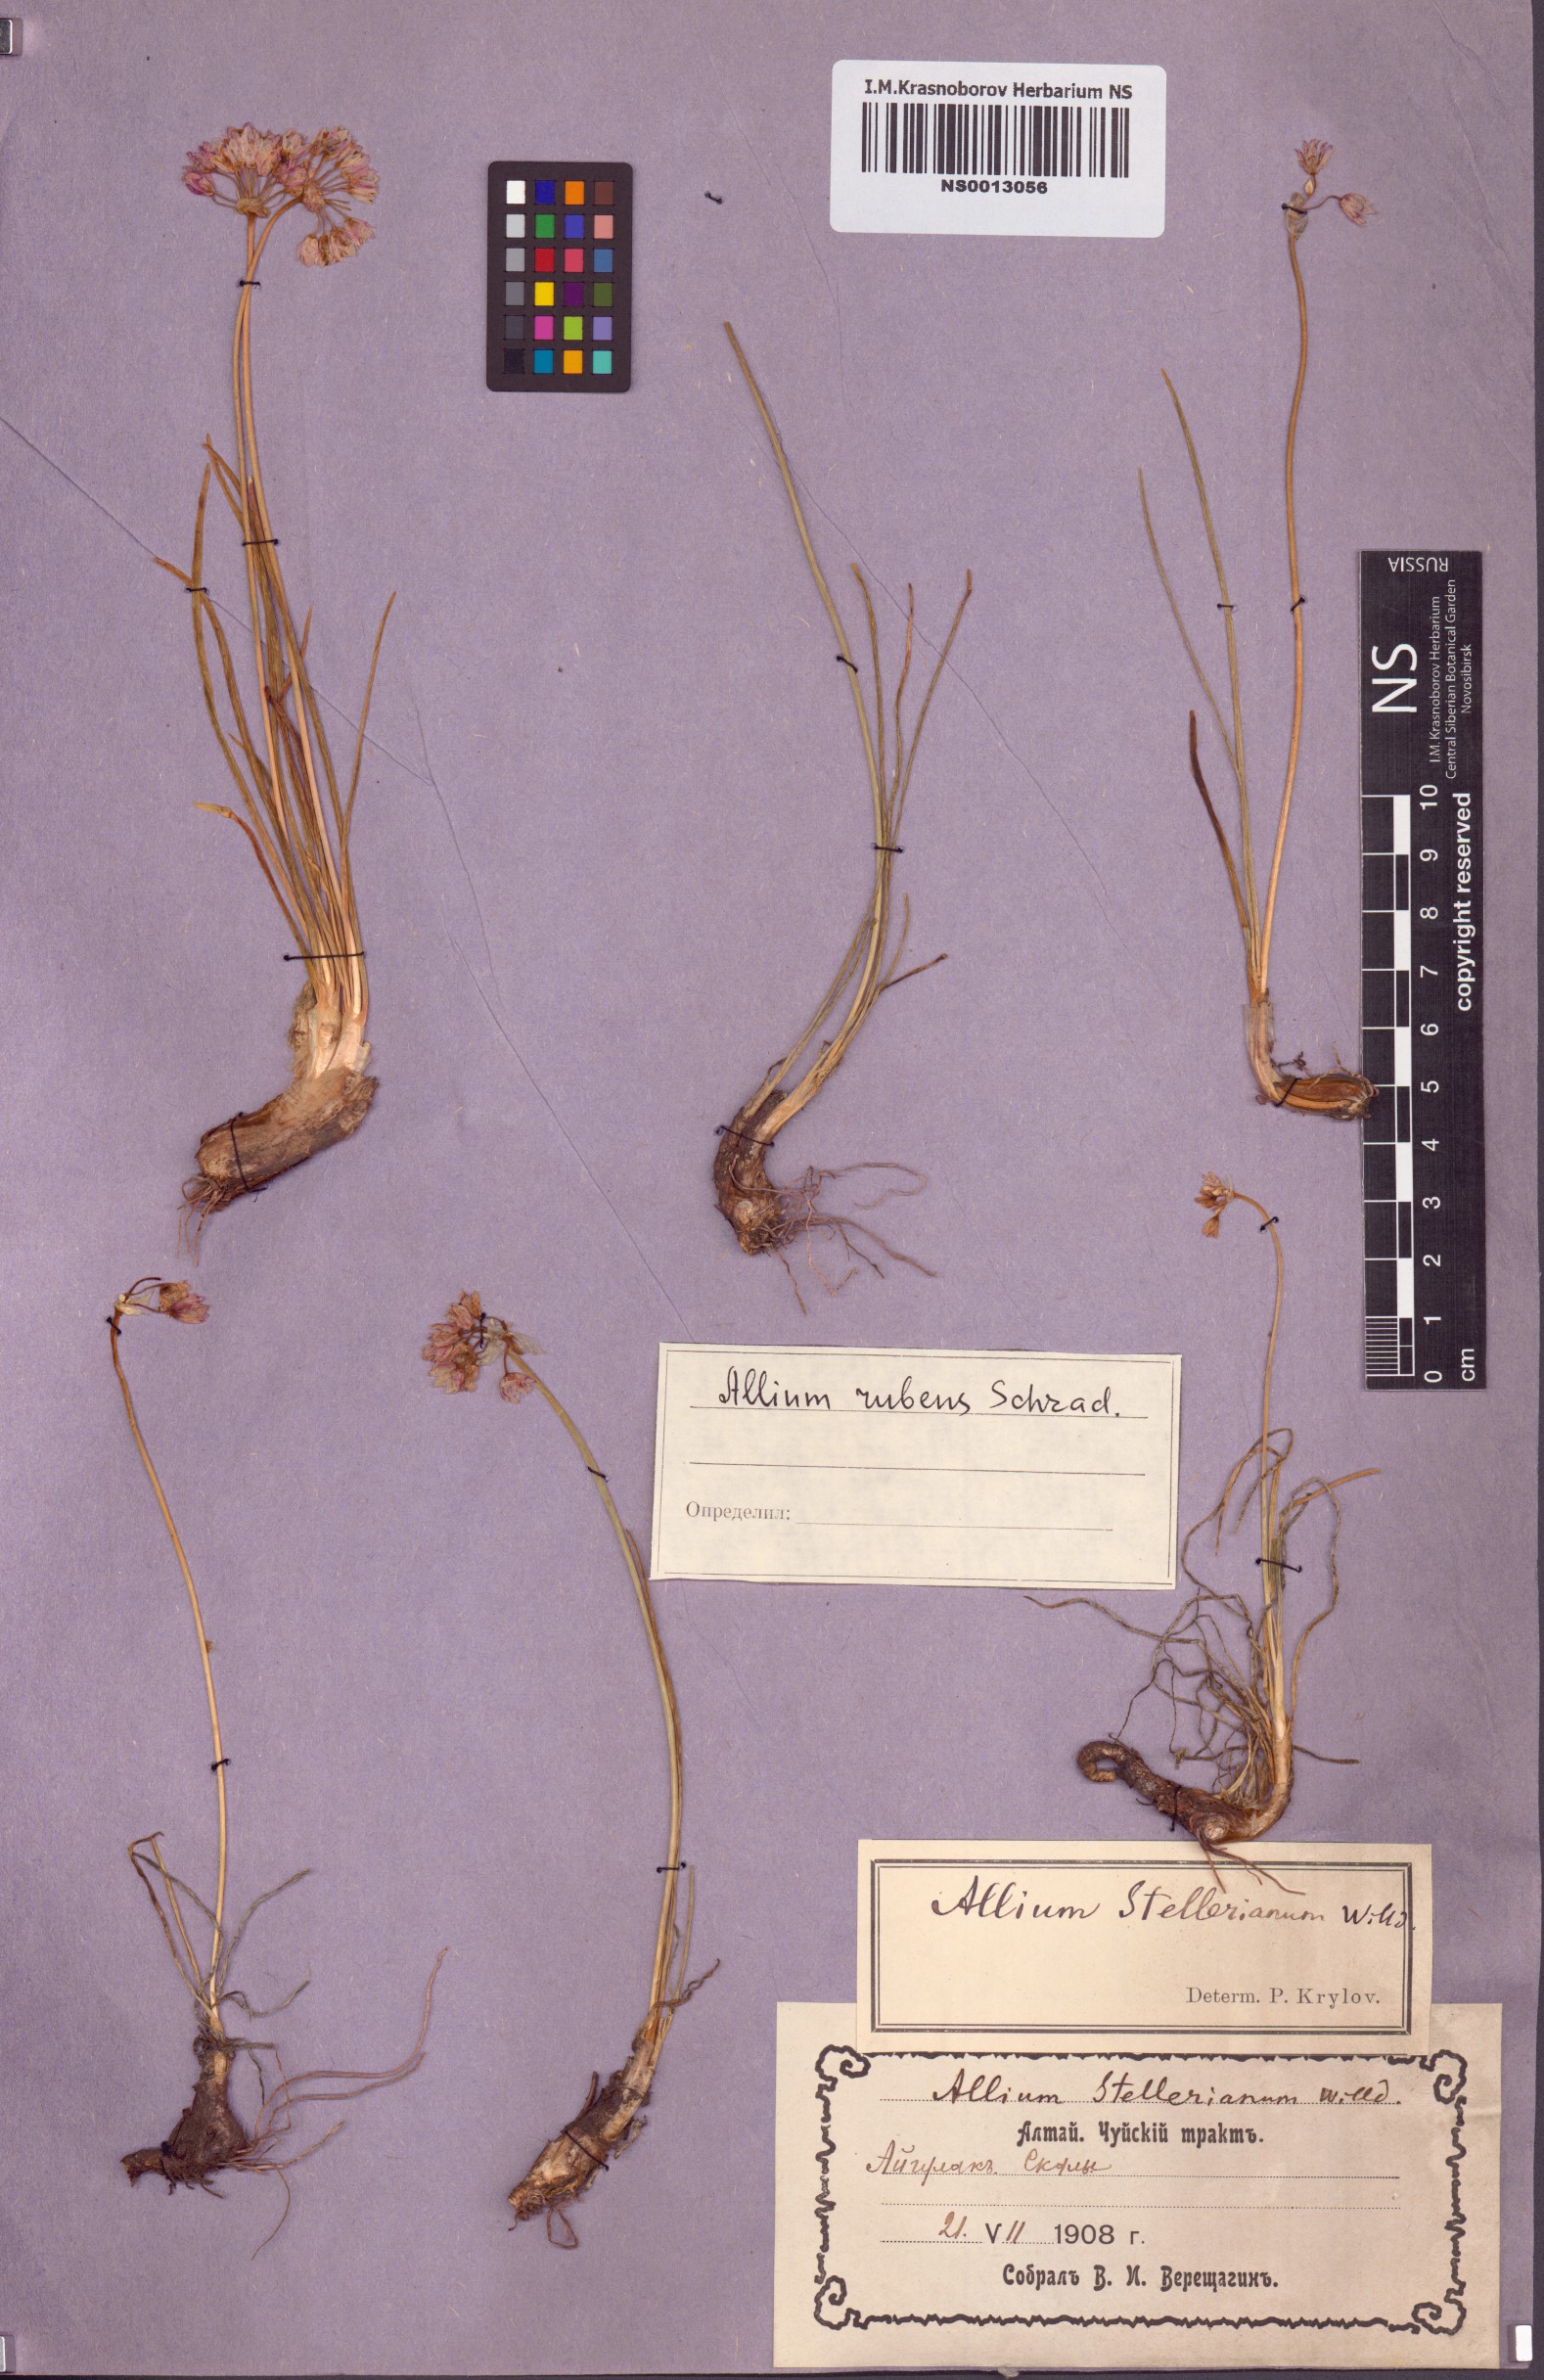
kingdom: Plantae
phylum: Tracheophyta
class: Liliopsida
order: Asparagales
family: Amaryllidaceae
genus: Allium
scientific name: Allium rubens
